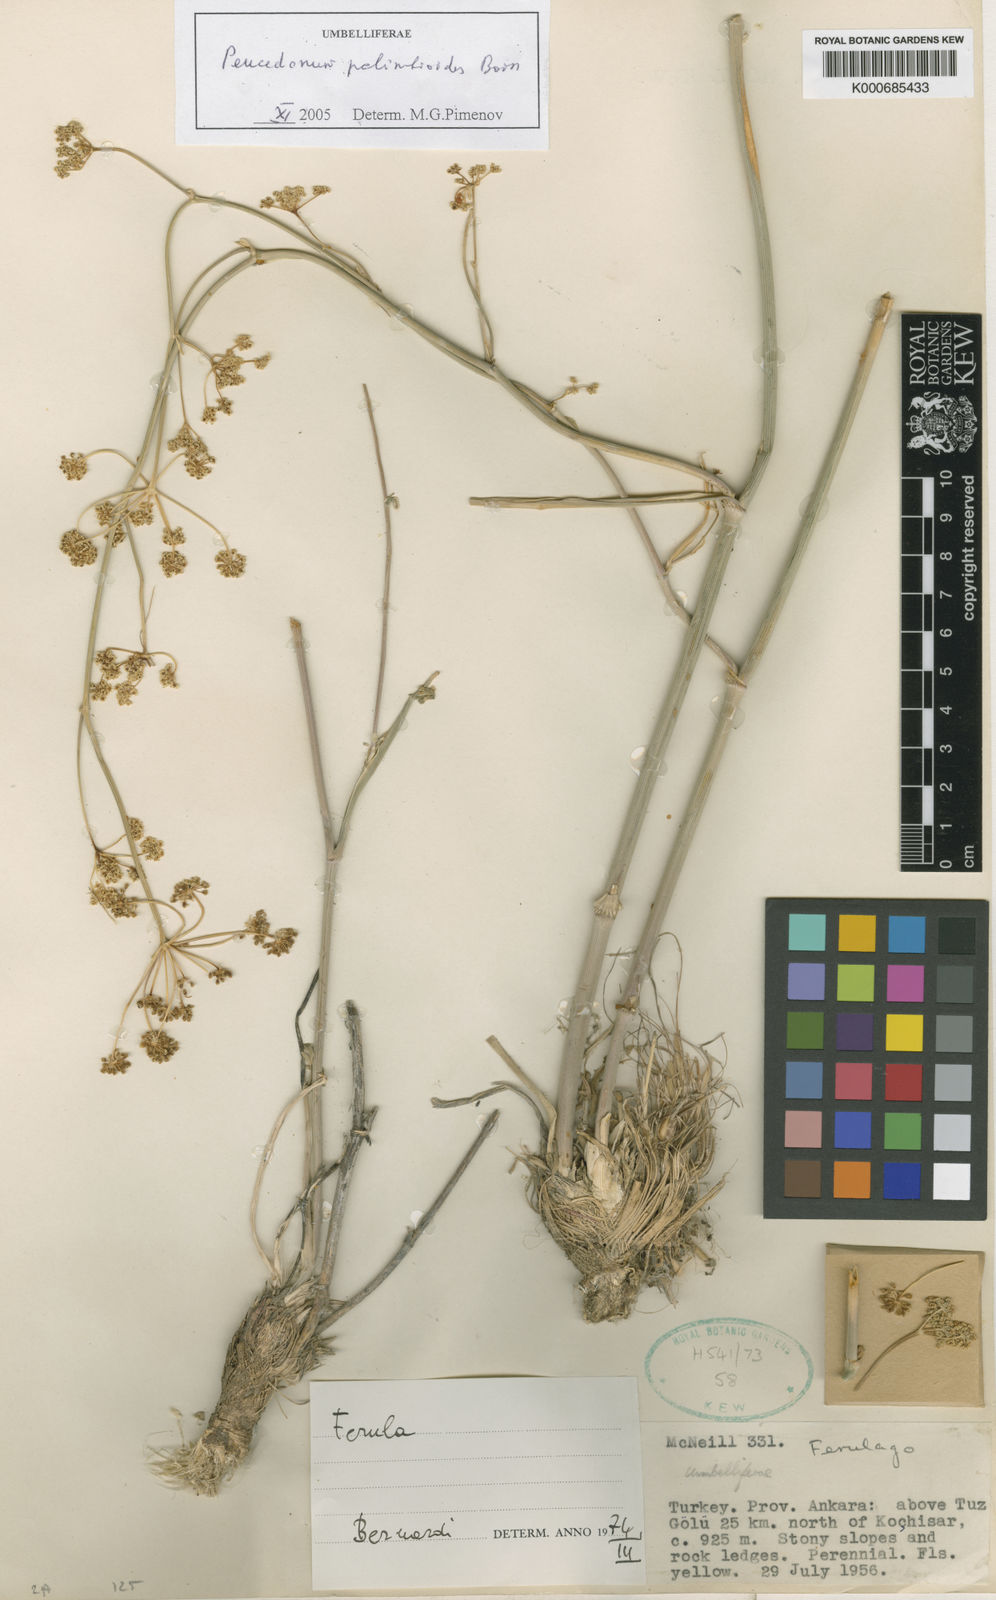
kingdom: Plantae
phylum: Tracheophyta
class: Magnoliopsida
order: Apiales
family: Apiaceae
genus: Dichoropetalum
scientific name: Dichoropetalum palimbioides
